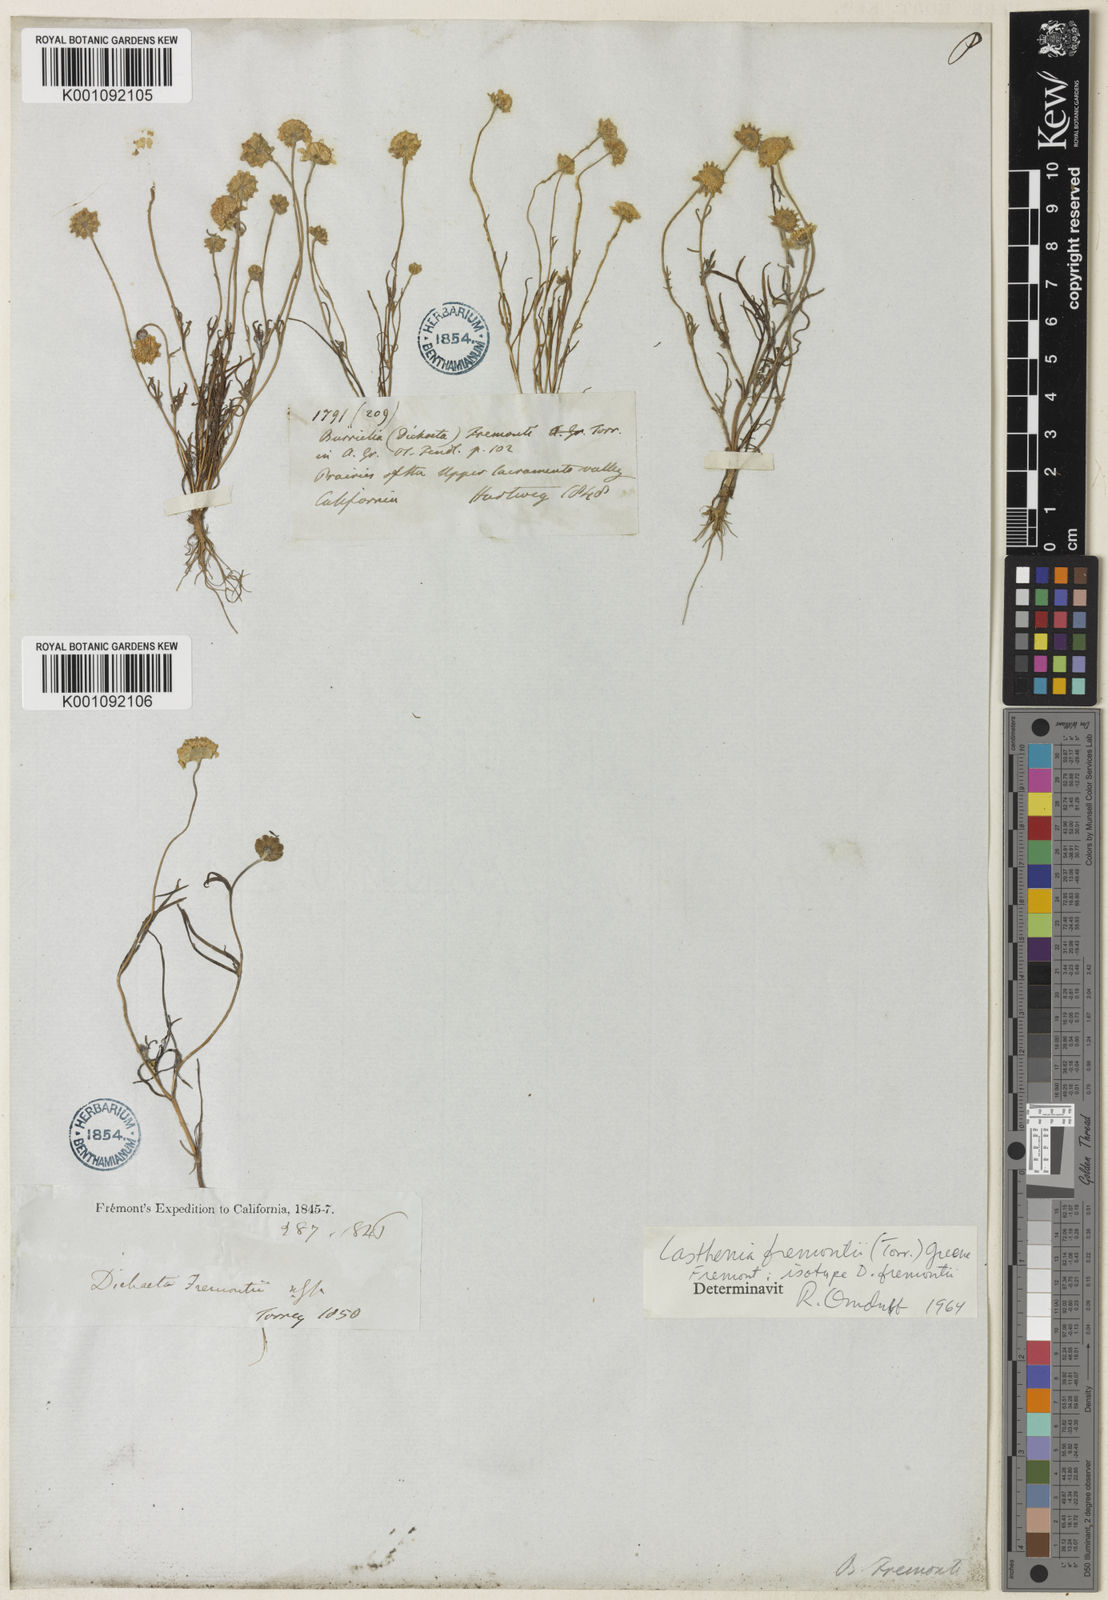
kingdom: Plantae
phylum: Tracheophyta
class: Magnoliopsida
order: Asterales
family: Asteraceae
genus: Lasthenia
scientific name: Lasthenia fremontii
